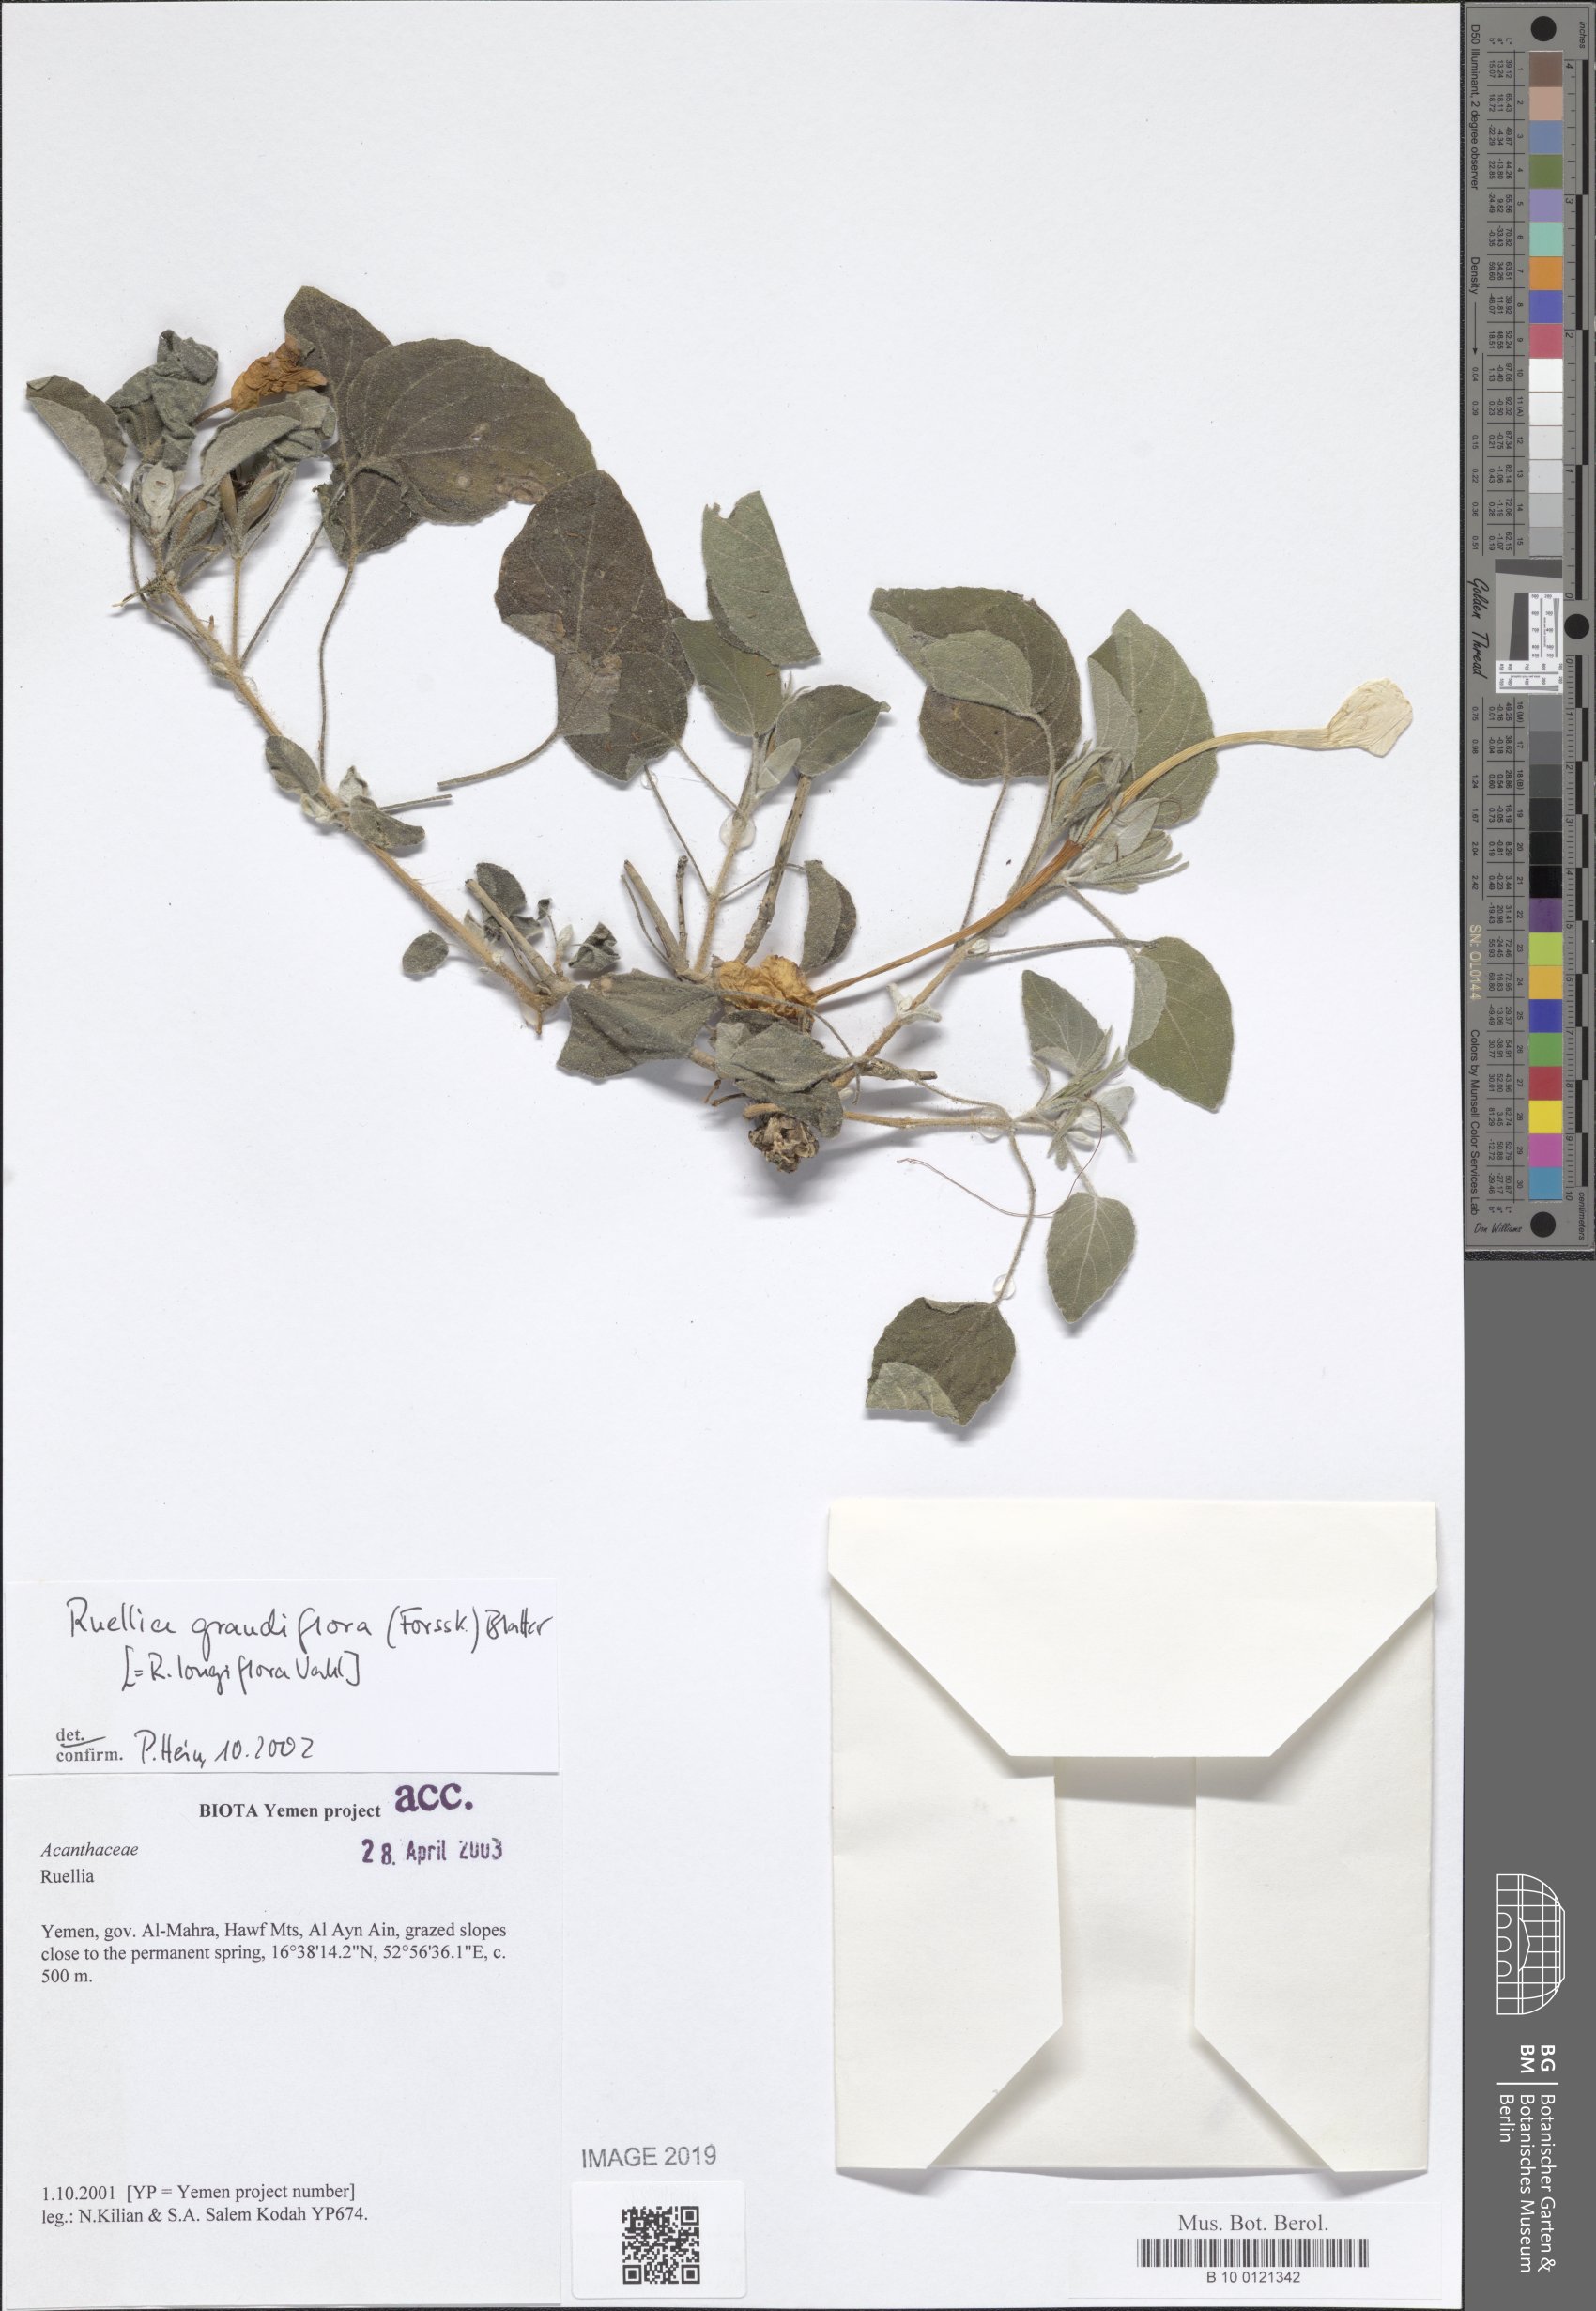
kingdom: Plantae
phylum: Tracheophyta
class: Magnoliopsida
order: Lamiales
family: Acanthaceae
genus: Ruellia
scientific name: Ruellia grandiflora
